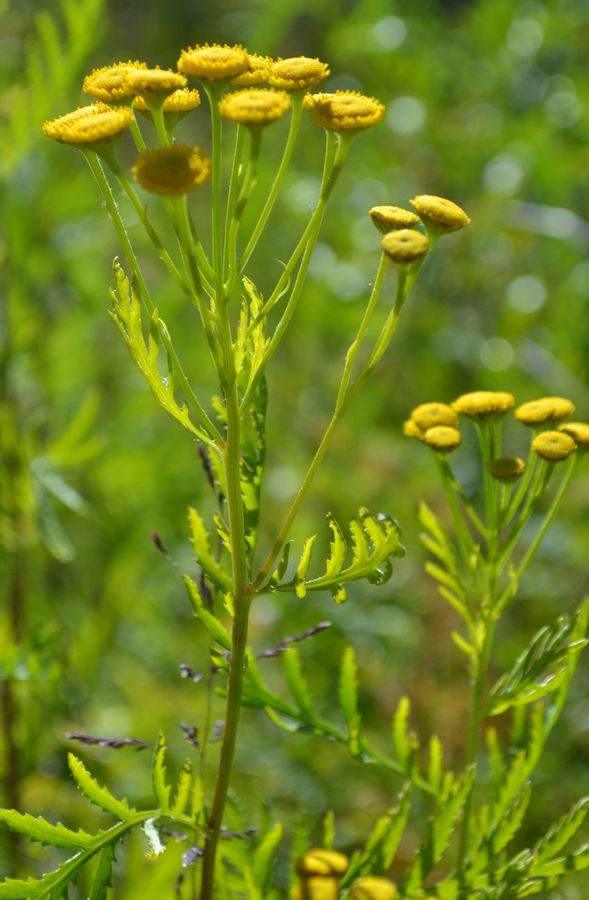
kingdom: Plantae
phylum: Tracheophyta
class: Magnoliopsida
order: Asterales
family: Asteraceae
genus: Tanacetum
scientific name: Tanacetum vulgare
